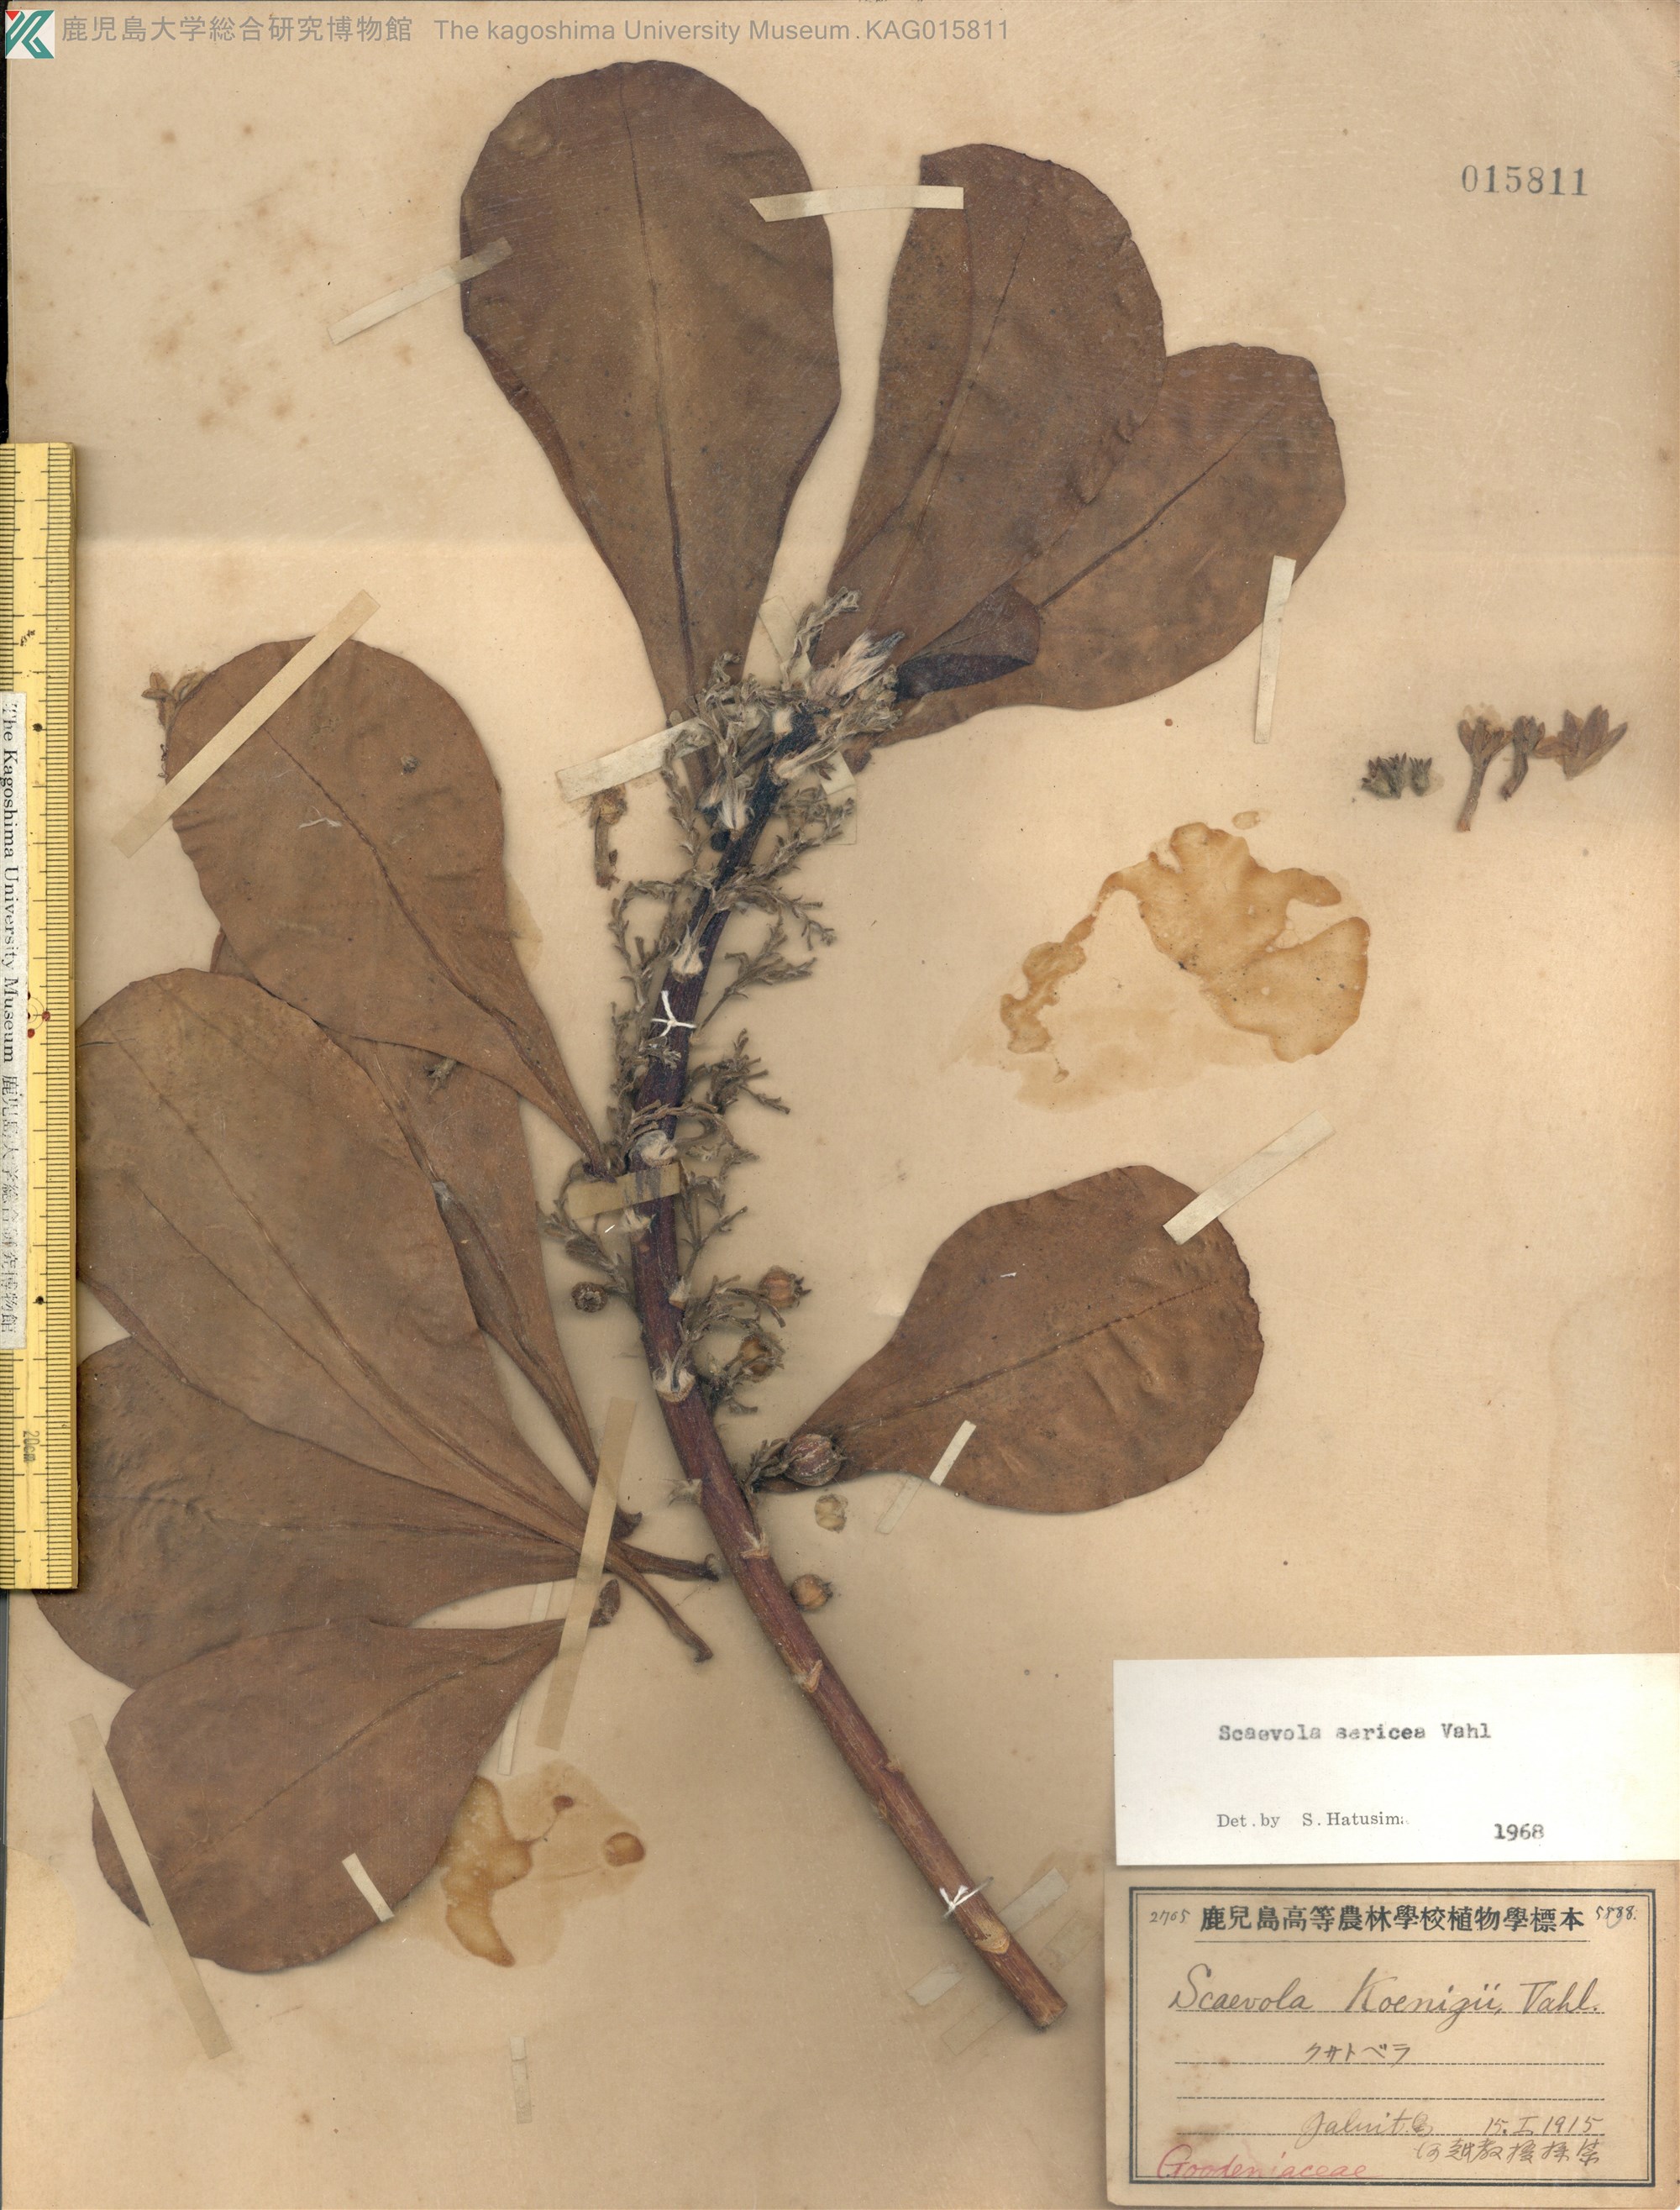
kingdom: Plantae
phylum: Tracheophyta
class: Magnoliopsida
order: Asterales
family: Goodeniaceae
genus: Scaevola
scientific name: Scaevola taccada
